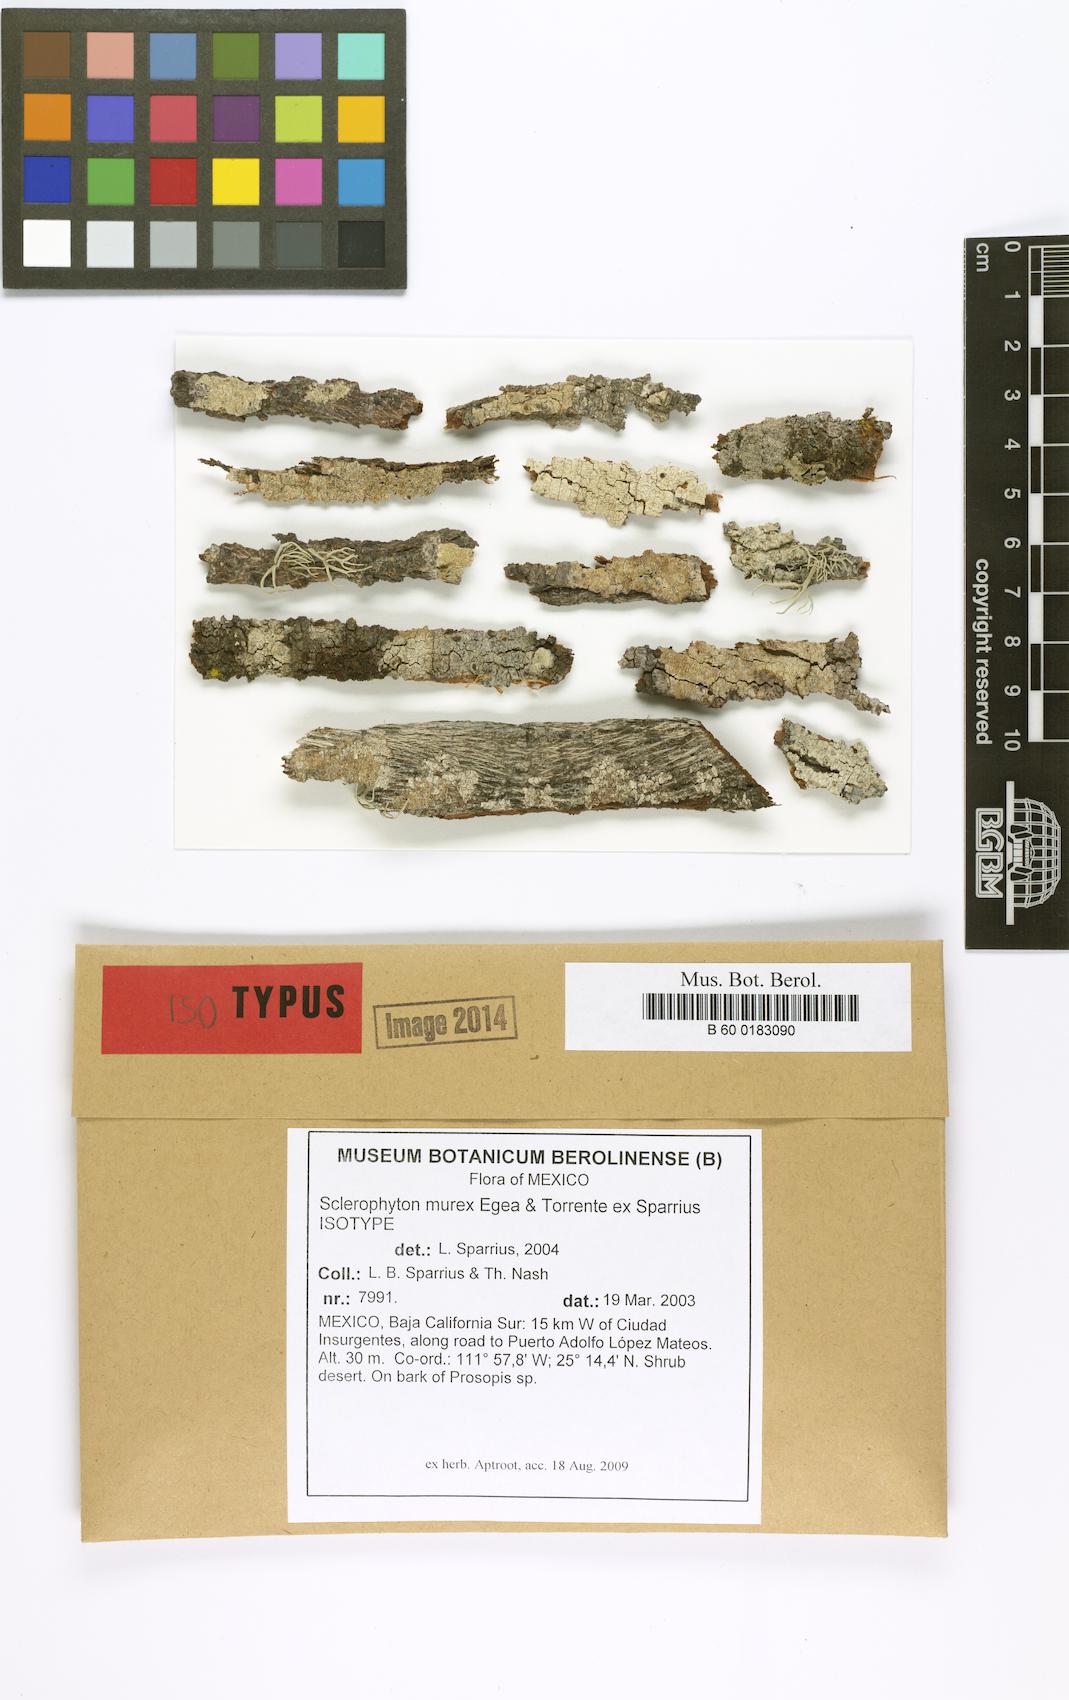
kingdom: Fungi
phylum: Ascomycota
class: Arthoniomycetes
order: Arthoniales
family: Roccellographaceae
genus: Fulvophyton
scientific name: Fulvophyton murex
